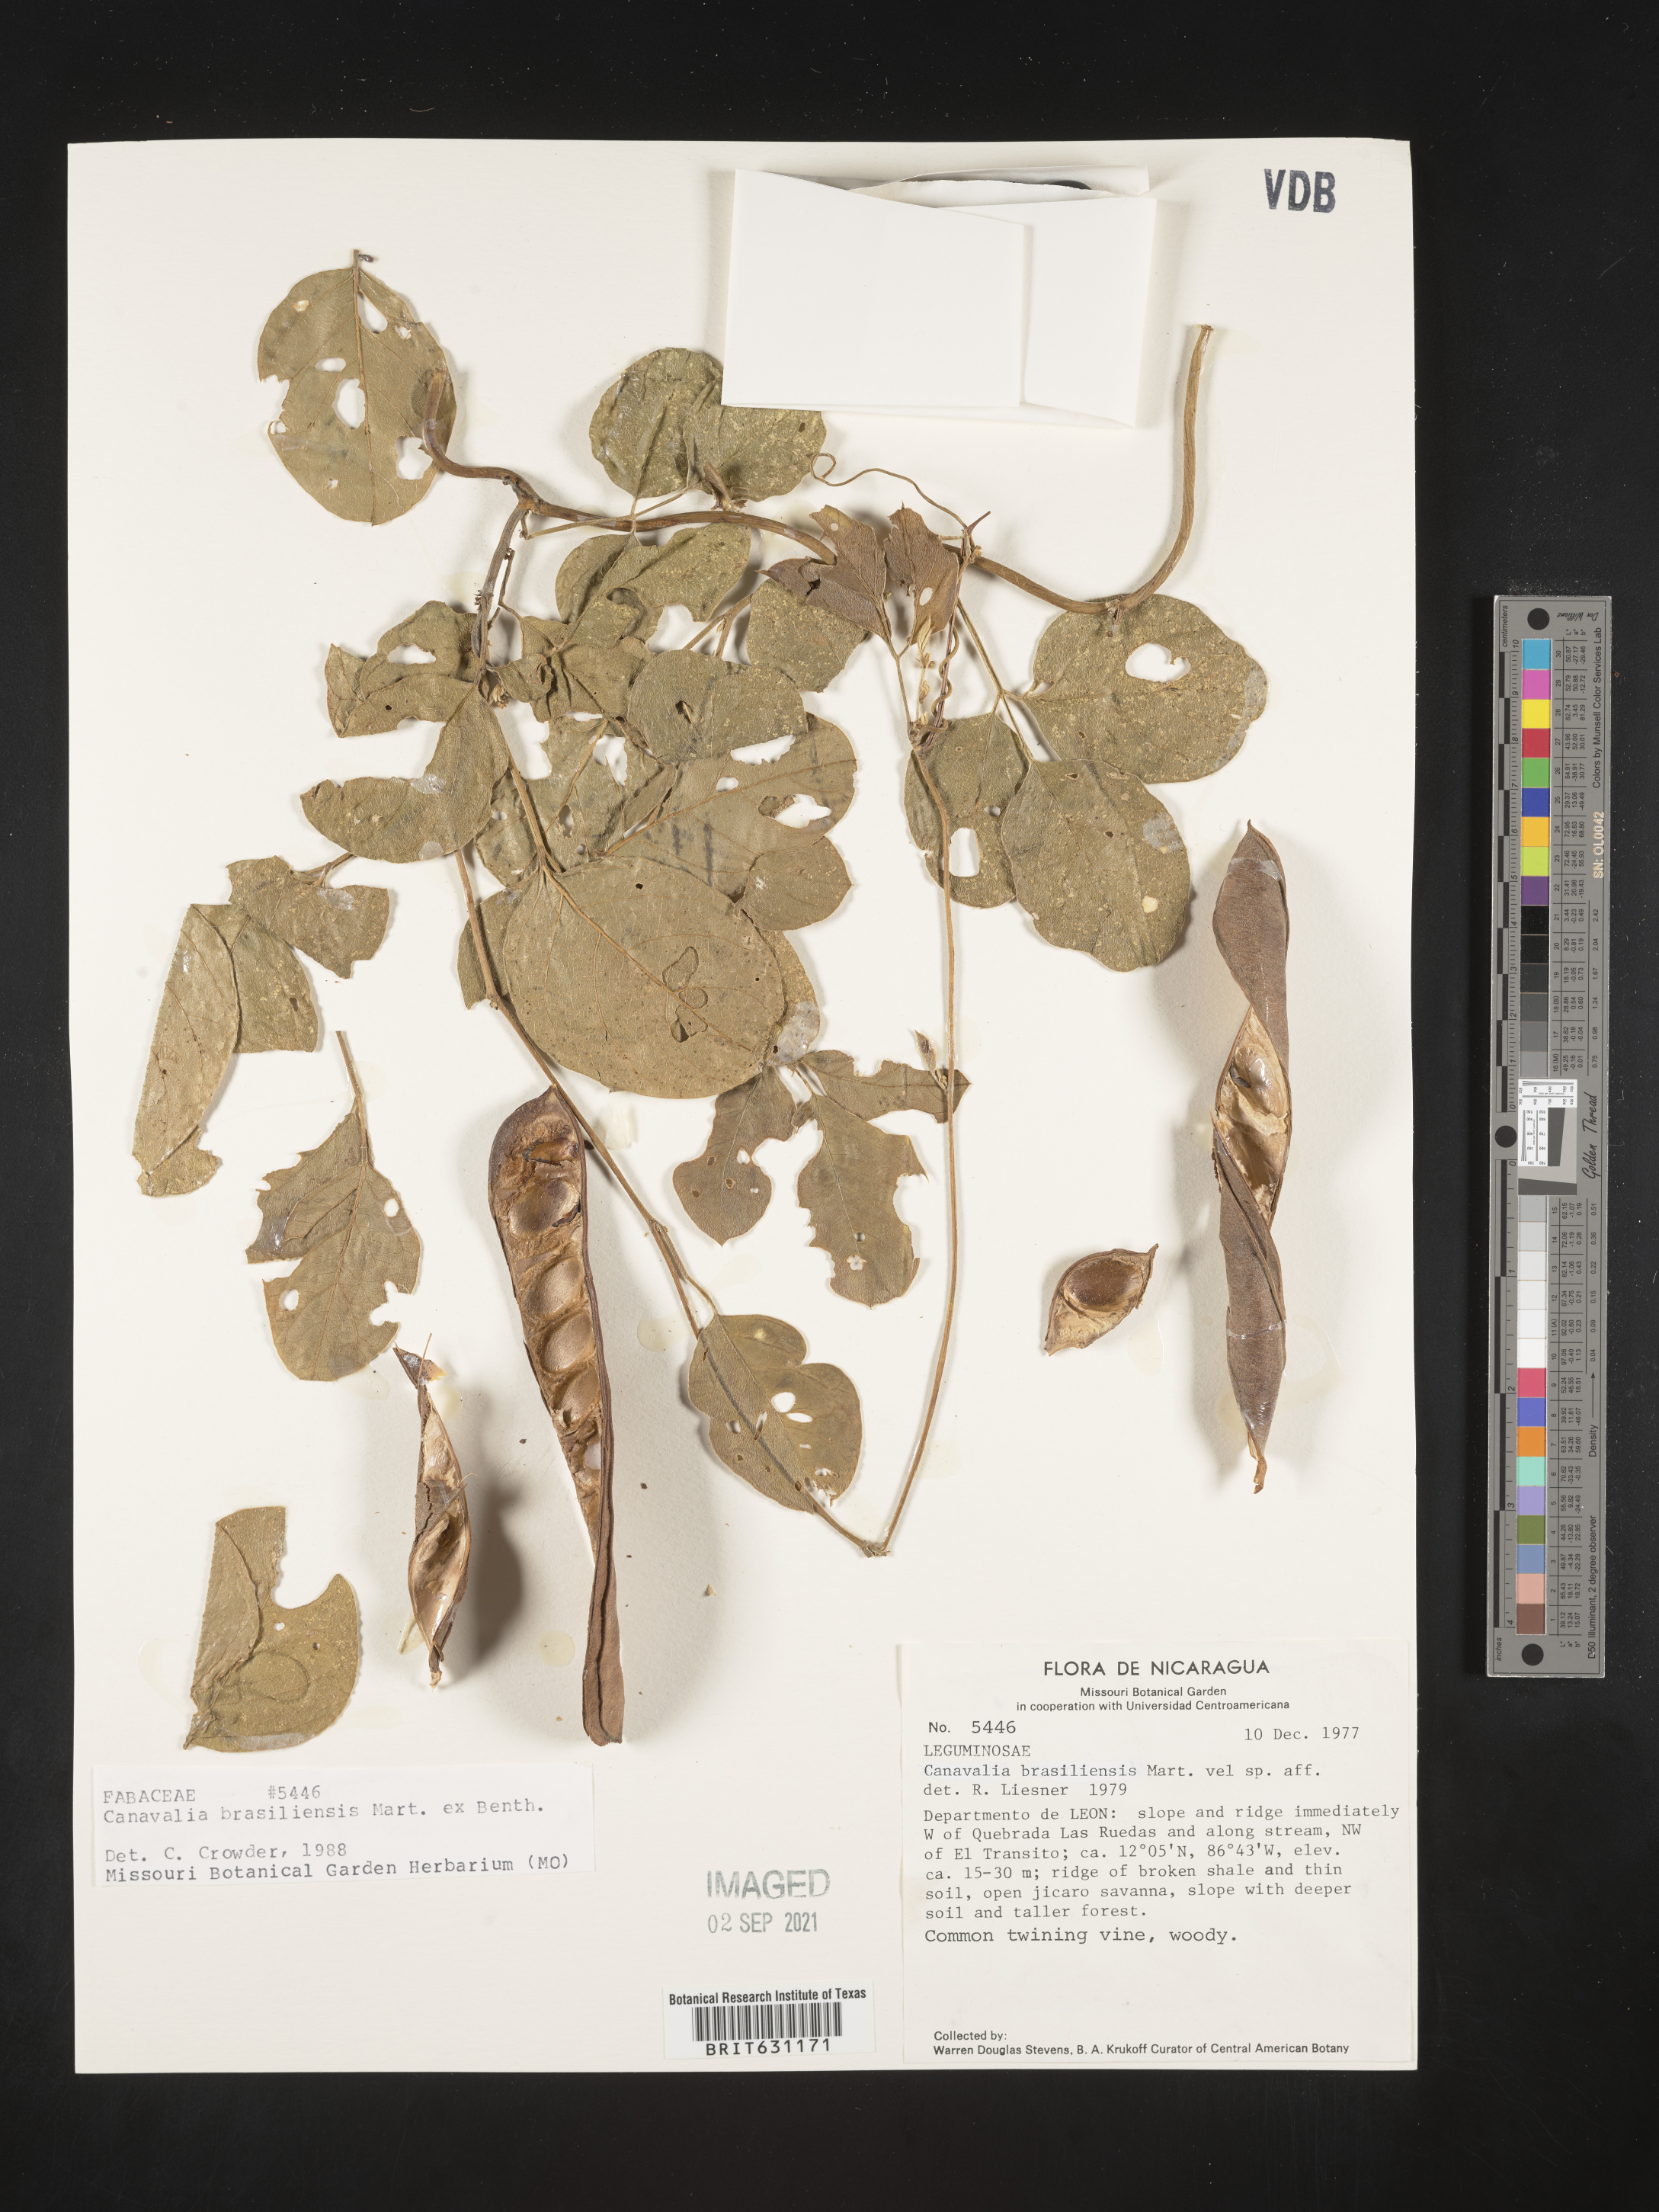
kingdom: Plantae
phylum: Tracheophyta
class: Magnoliopsida
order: Fabales
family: Fabaceae
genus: Canavalia
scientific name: Canavalia brasiliensis
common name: Barbicou-bean
